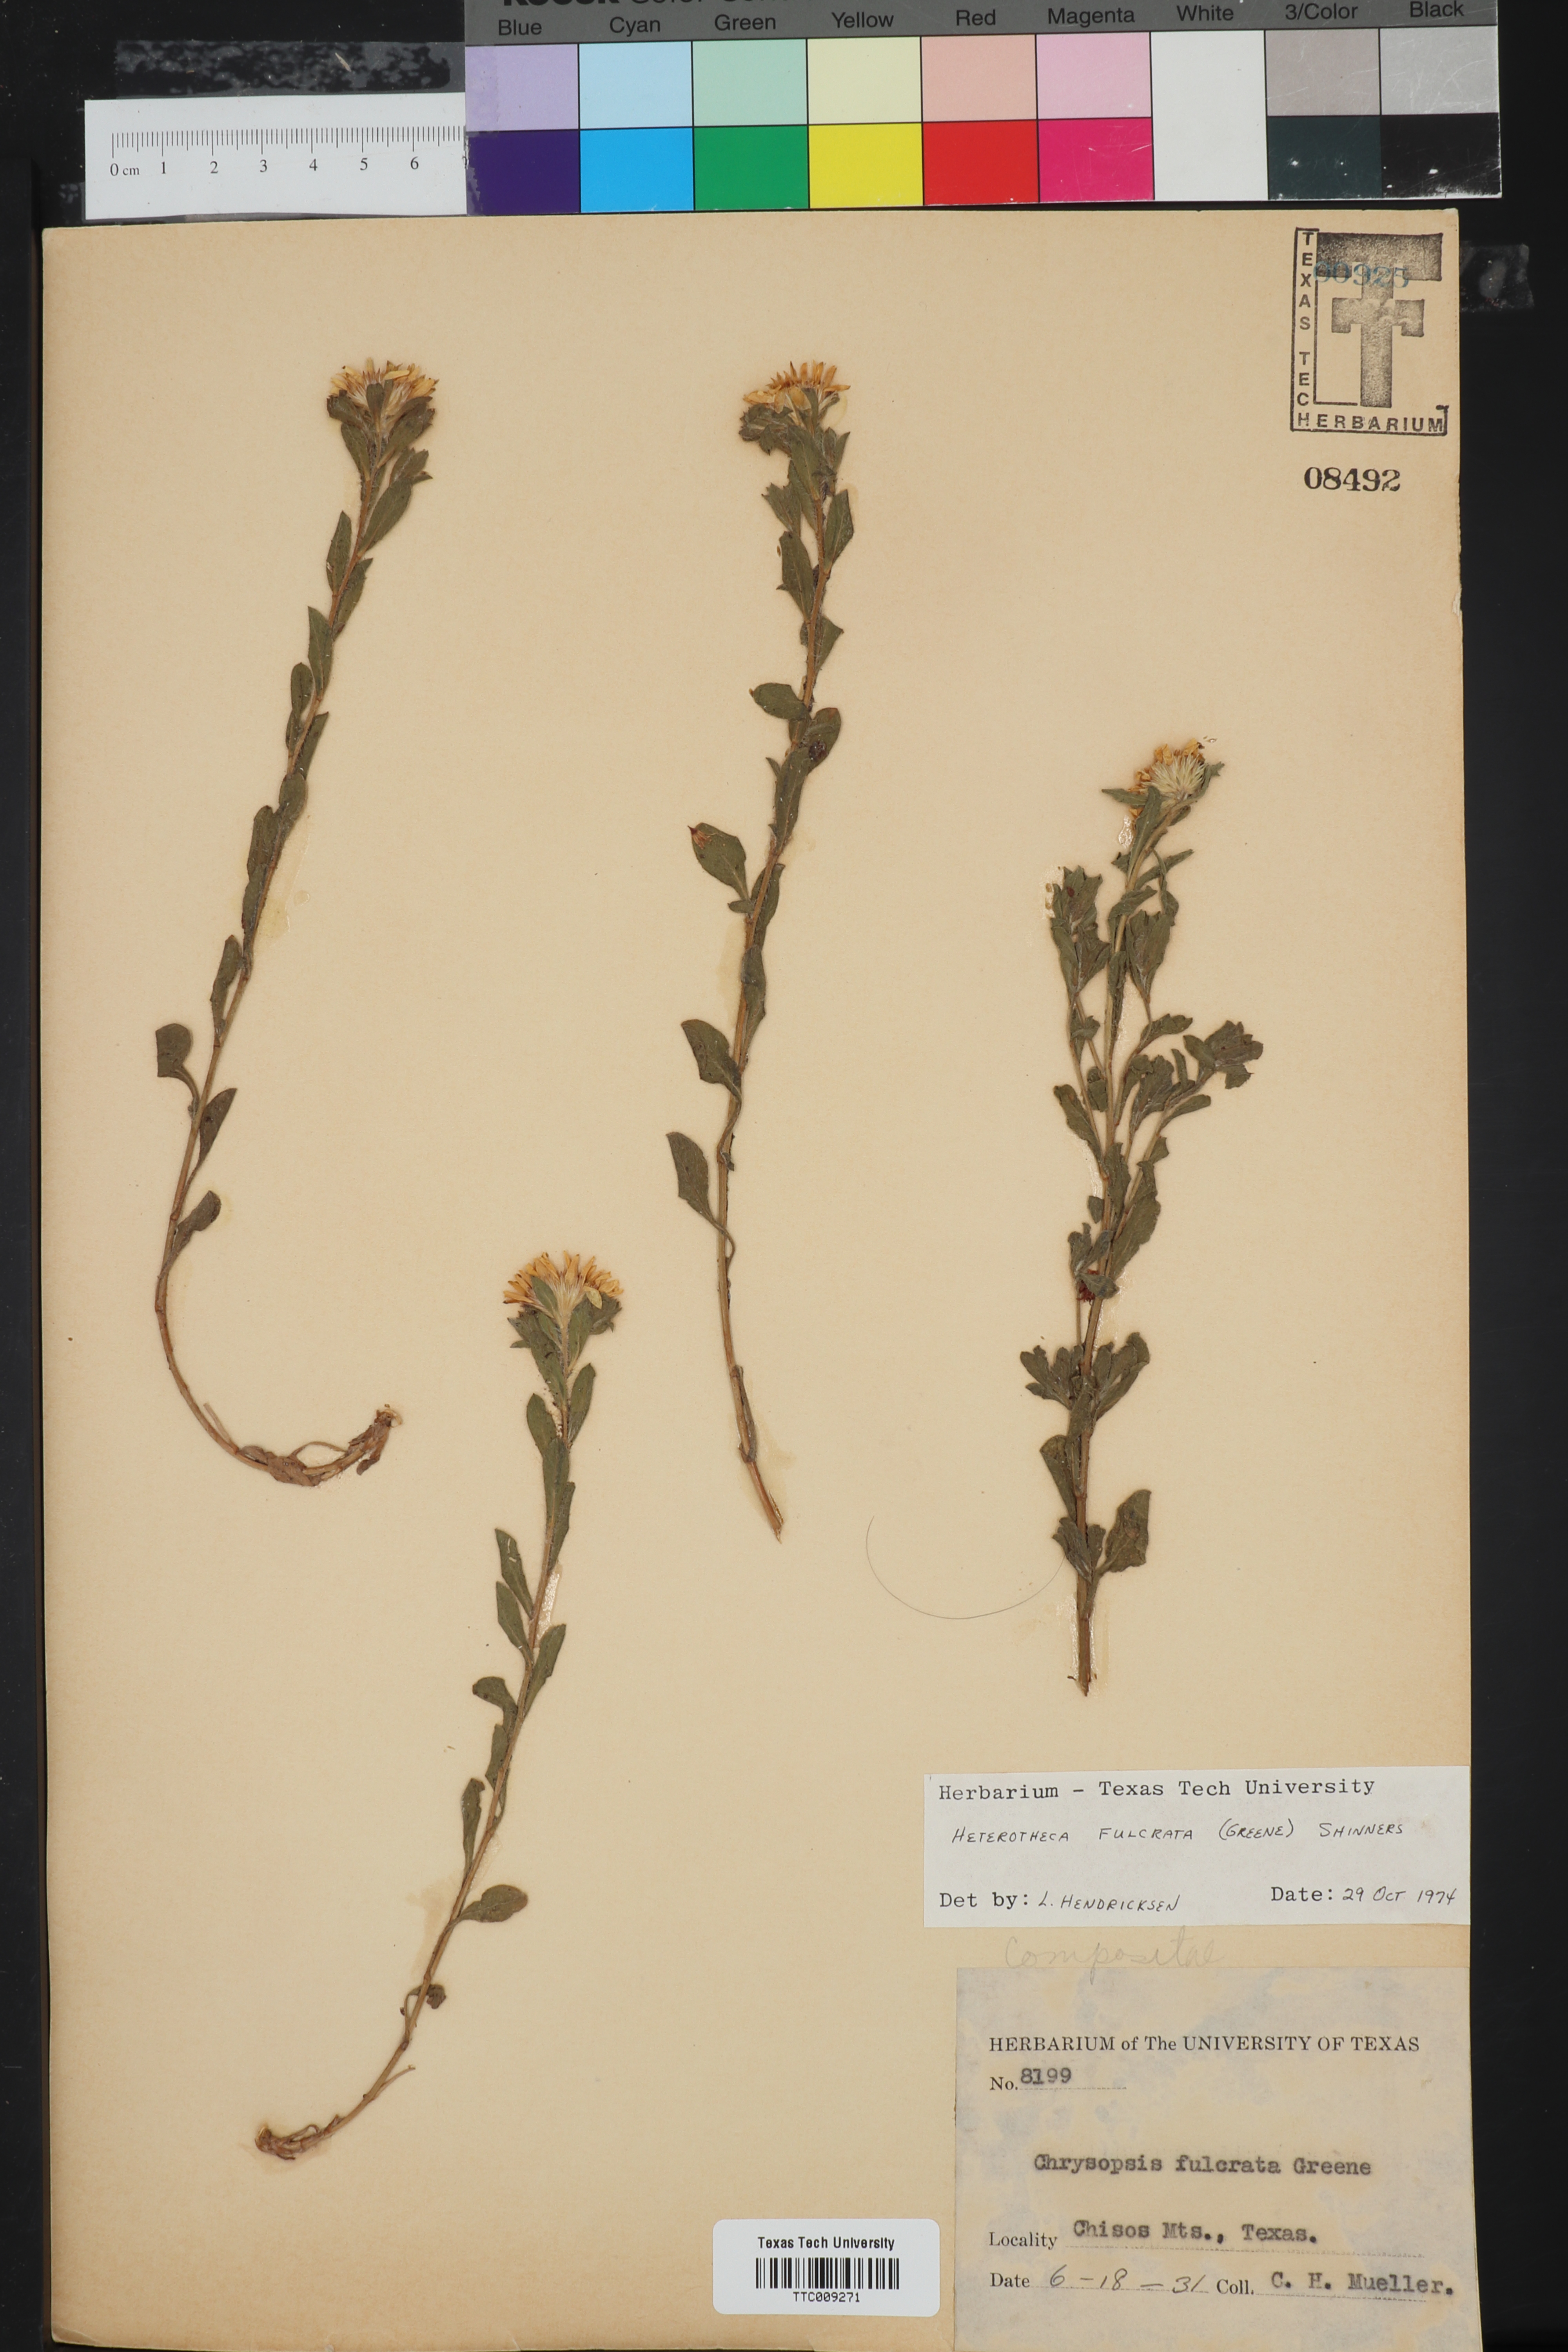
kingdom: Plantae
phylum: Tracheophyta
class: Magnoliopsida
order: Asterales
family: Asteraceae
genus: Heterotheca
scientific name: Heterotheca fulcrata
